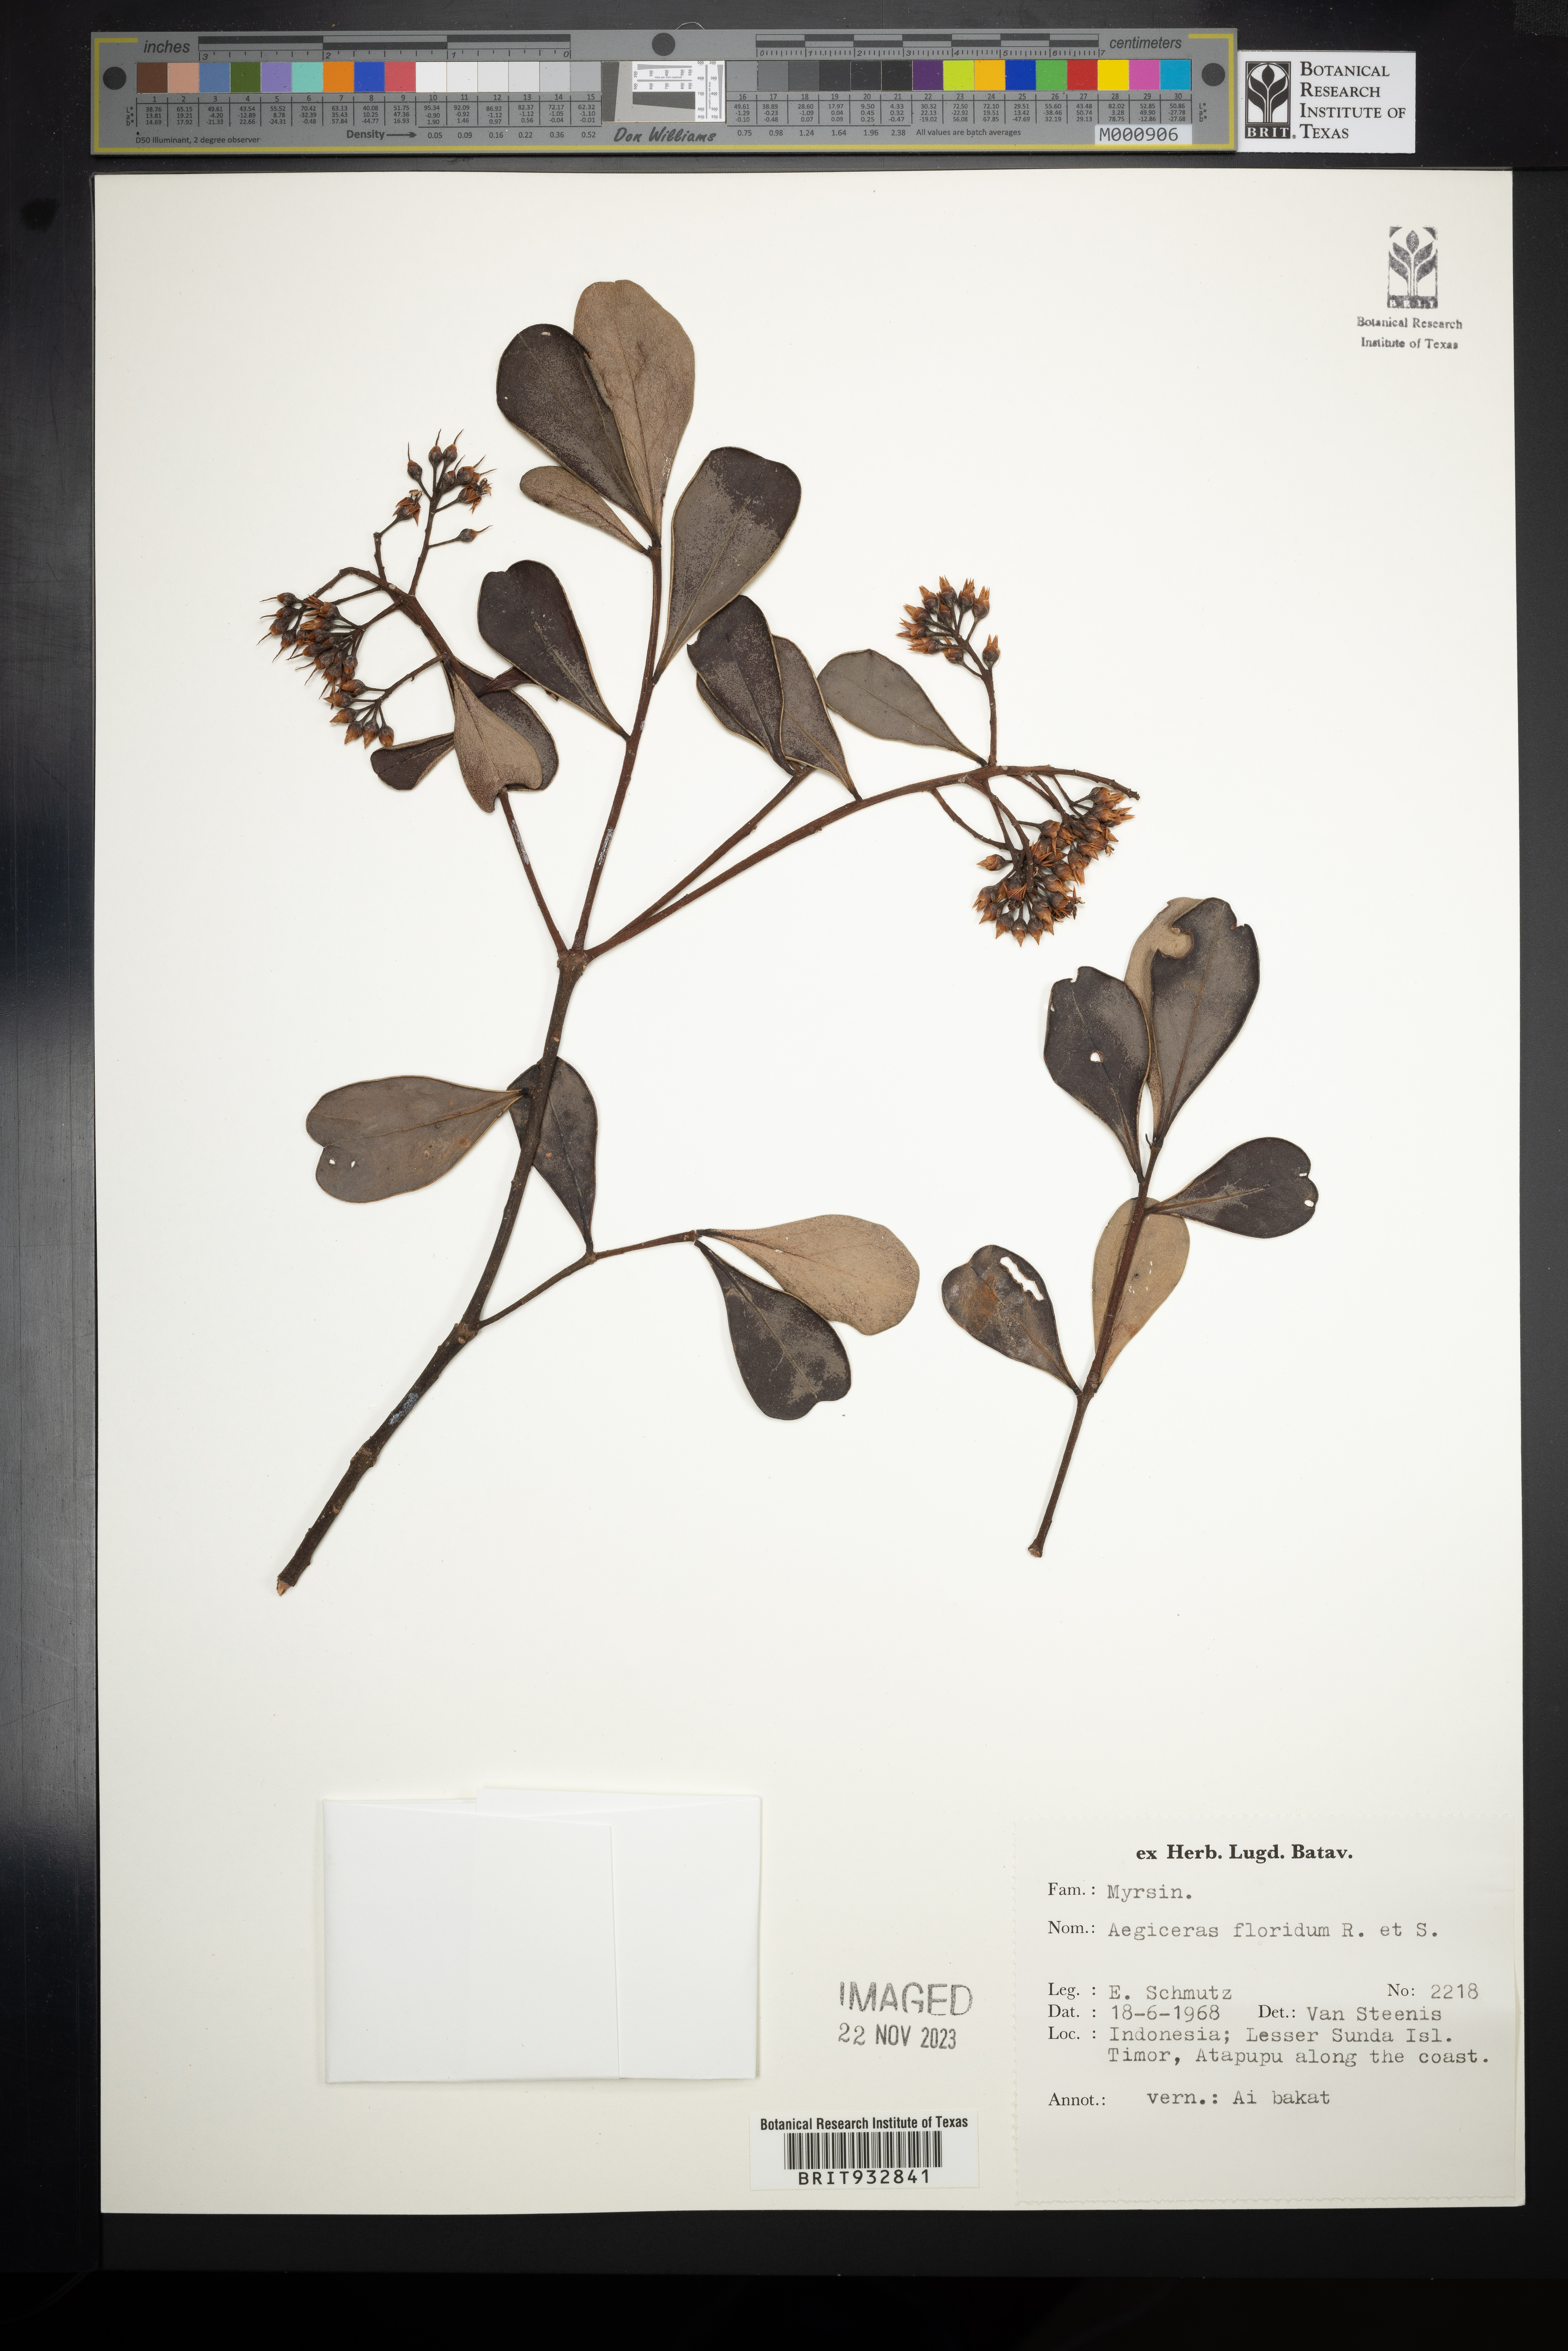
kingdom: Plantae
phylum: Tracheophyta
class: Magnoliopsida
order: Ericales
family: Primulaceae
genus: Aegiceras
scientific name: Aegiceras
